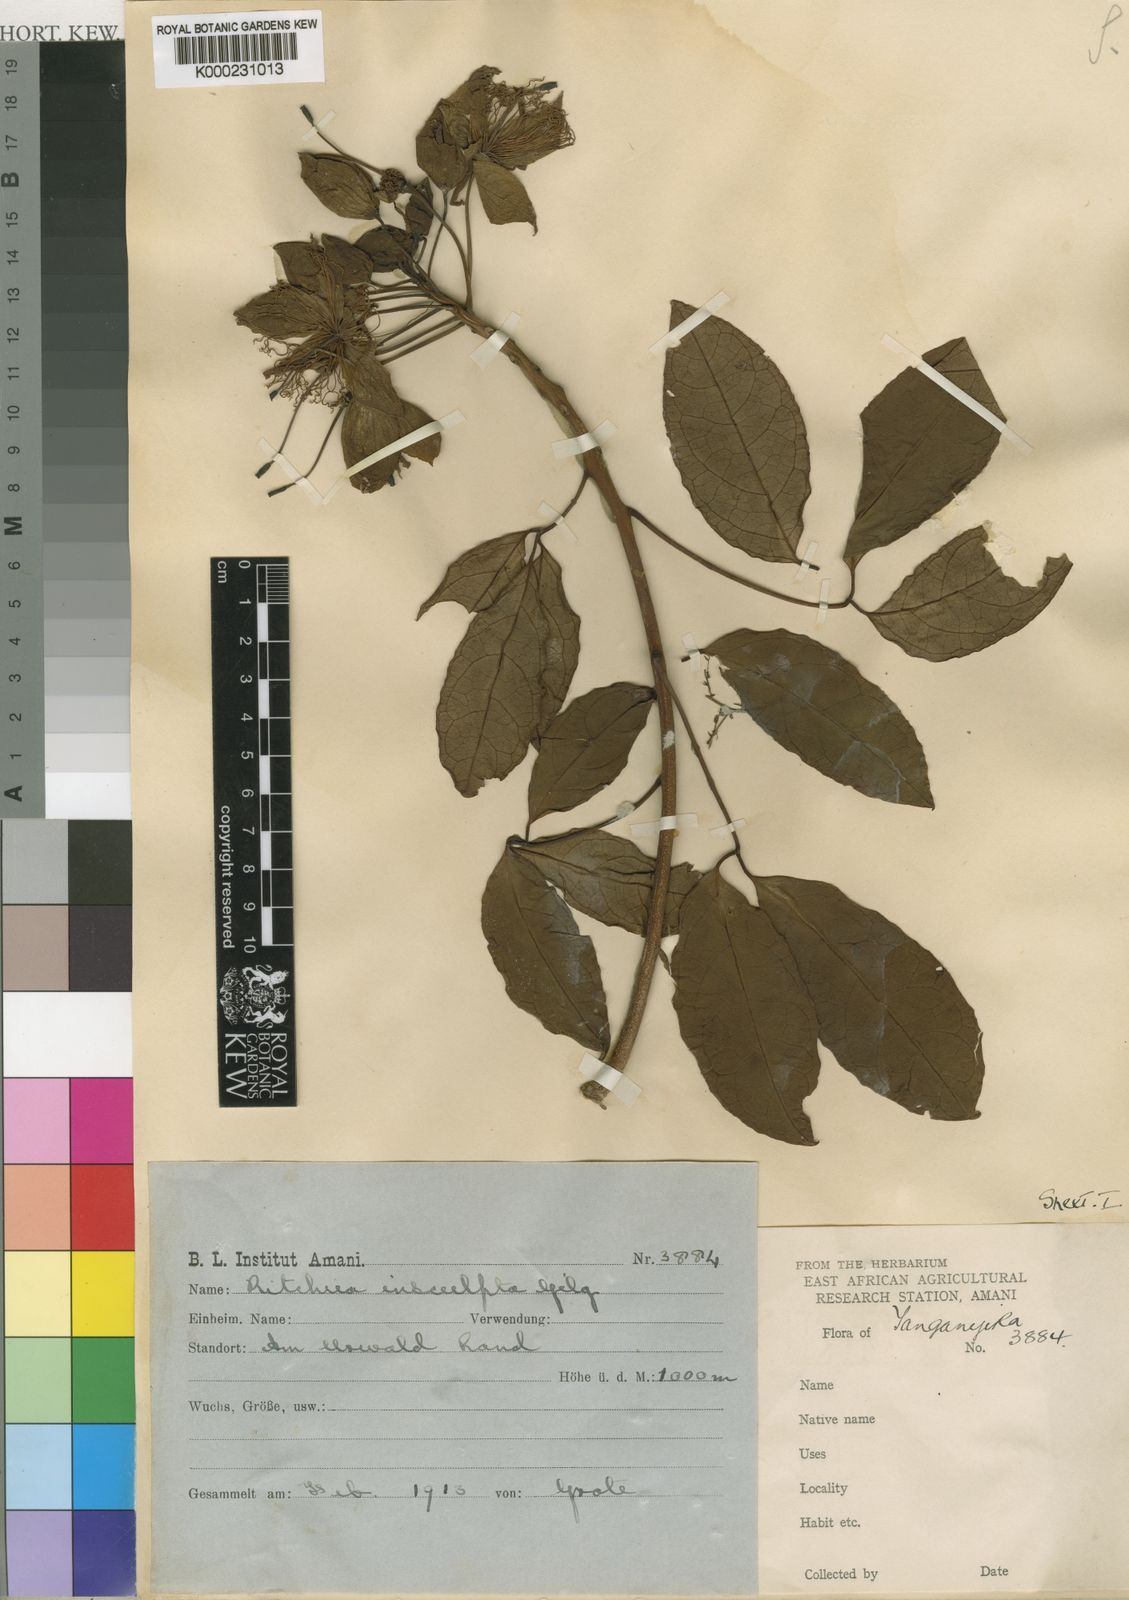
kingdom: Plantae
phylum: Tracheophyta
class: Magnoliopsida
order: Brassicales
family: Capparaceae
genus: Ritchiea
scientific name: Ritchiea capparoides
